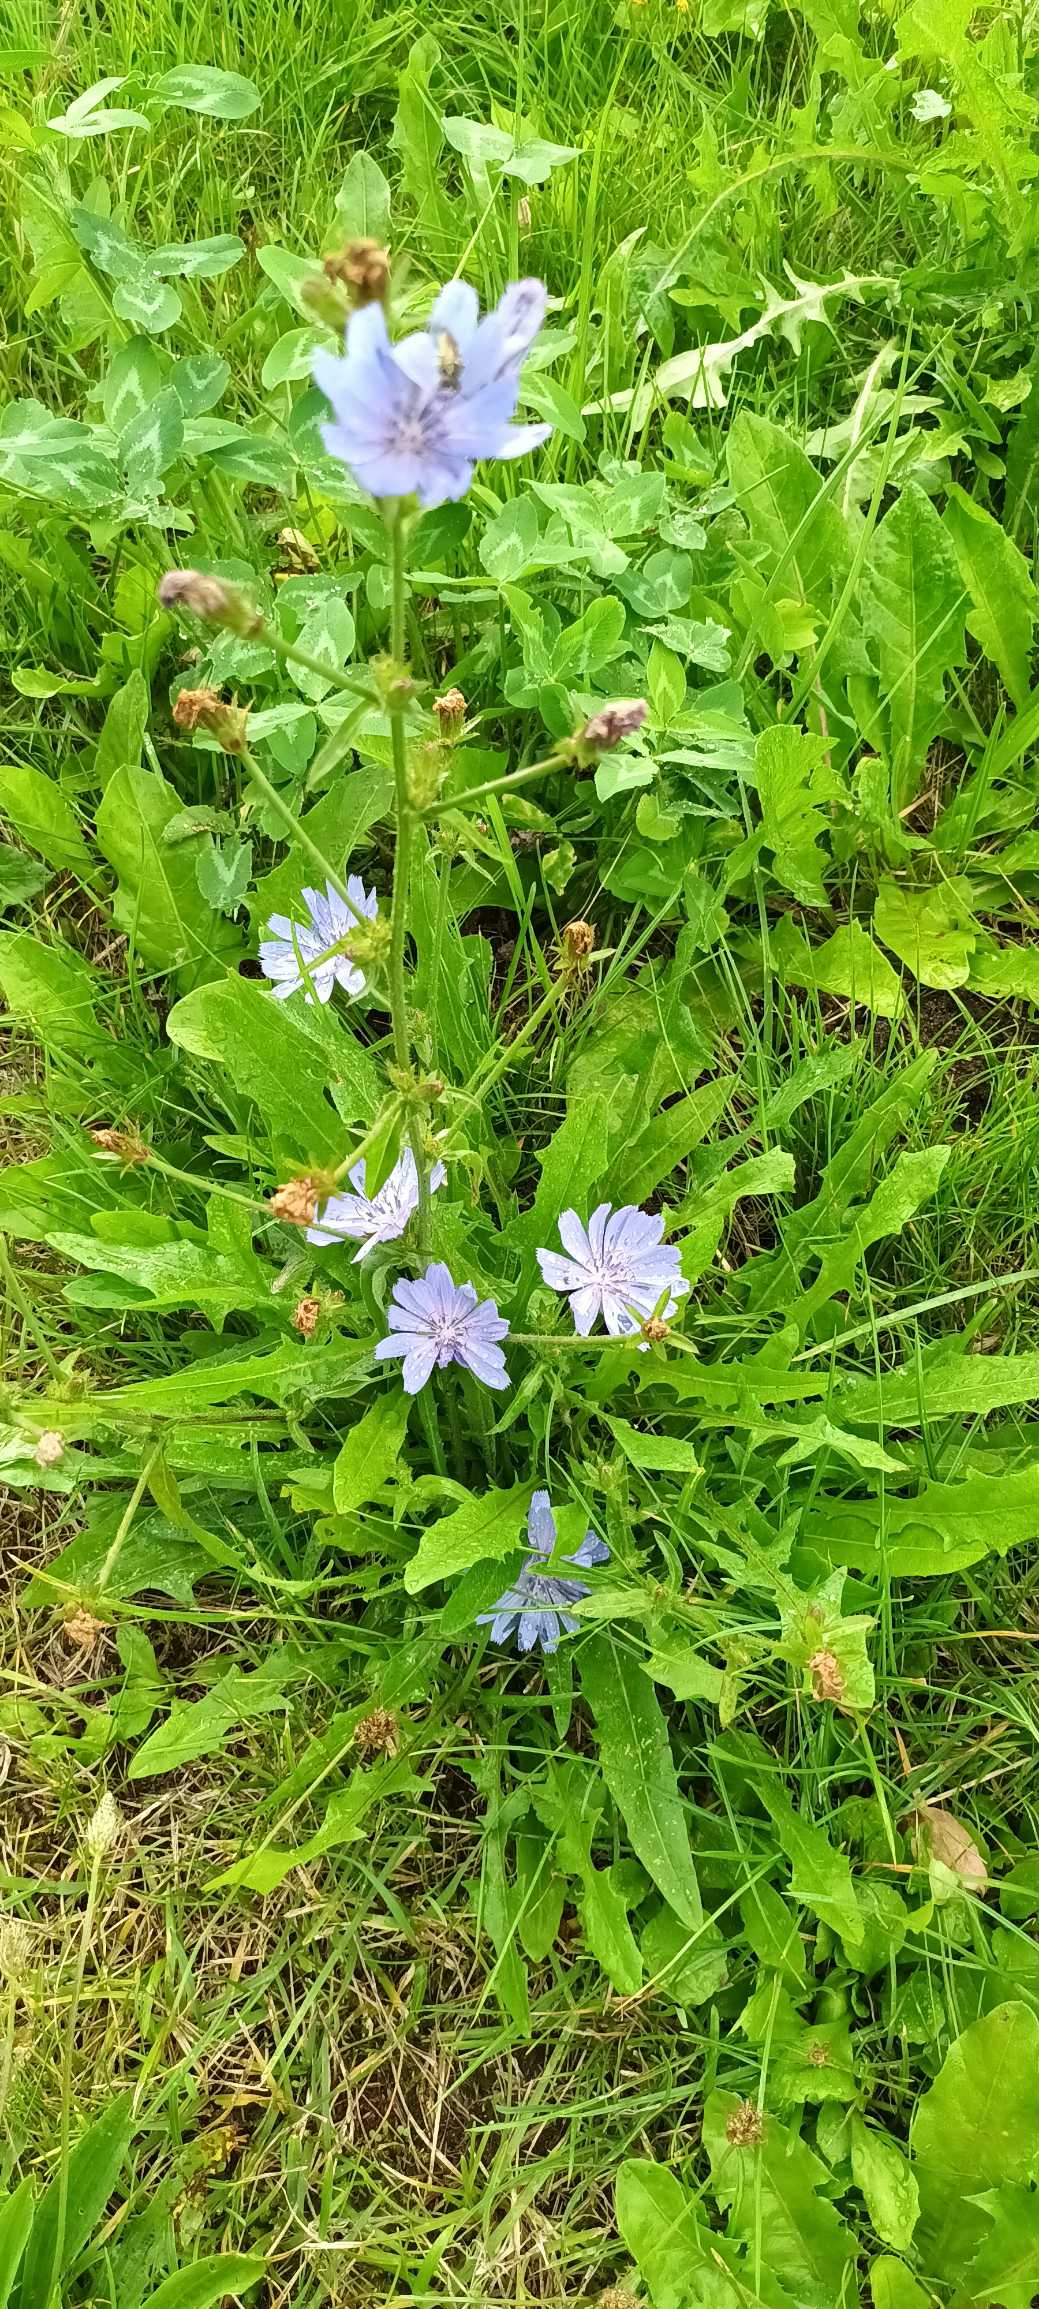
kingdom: Plantae
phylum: Tracheophyta
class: Magnoliopsida
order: Asterales
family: Asteraceae
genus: Cichorium
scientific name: Cichorium intybus
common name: Cikorie
